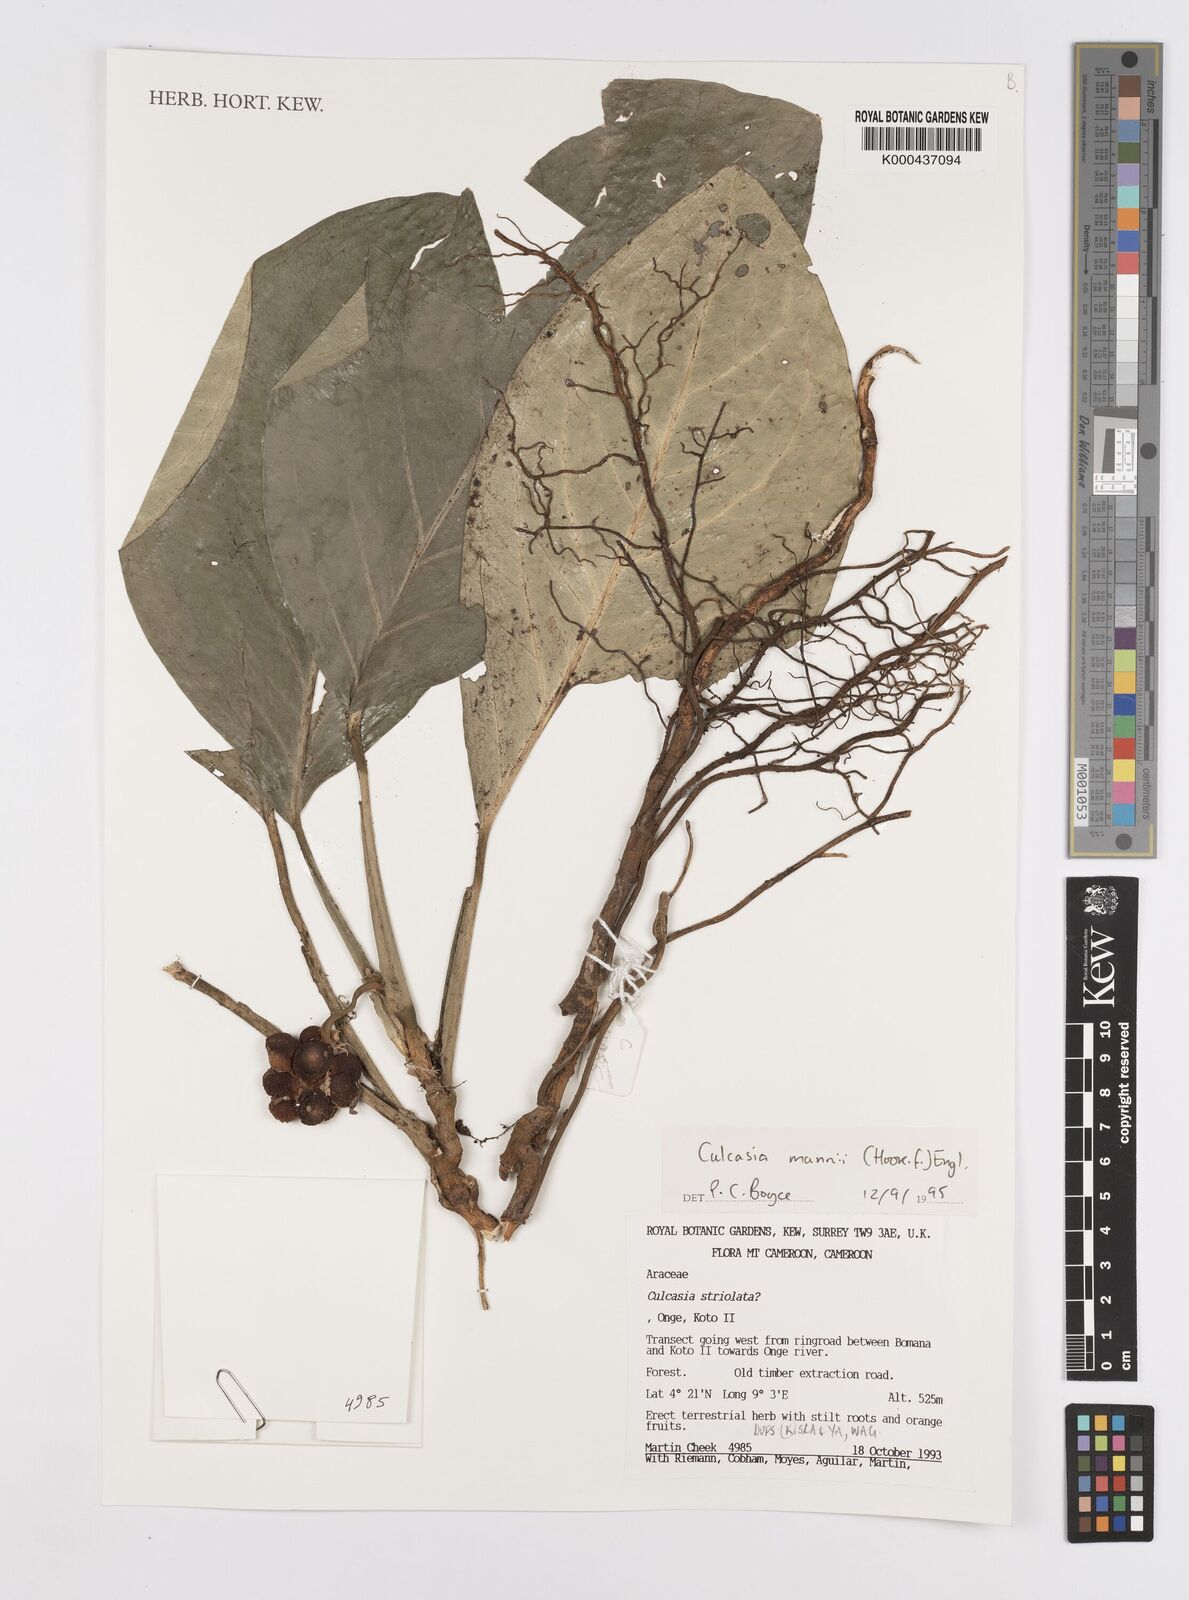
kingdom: Plantae
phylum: Tracheophyta
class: Liliopsida
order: Alismatales
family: Araceae
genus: Culcasia
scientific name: Culcasia mannii
